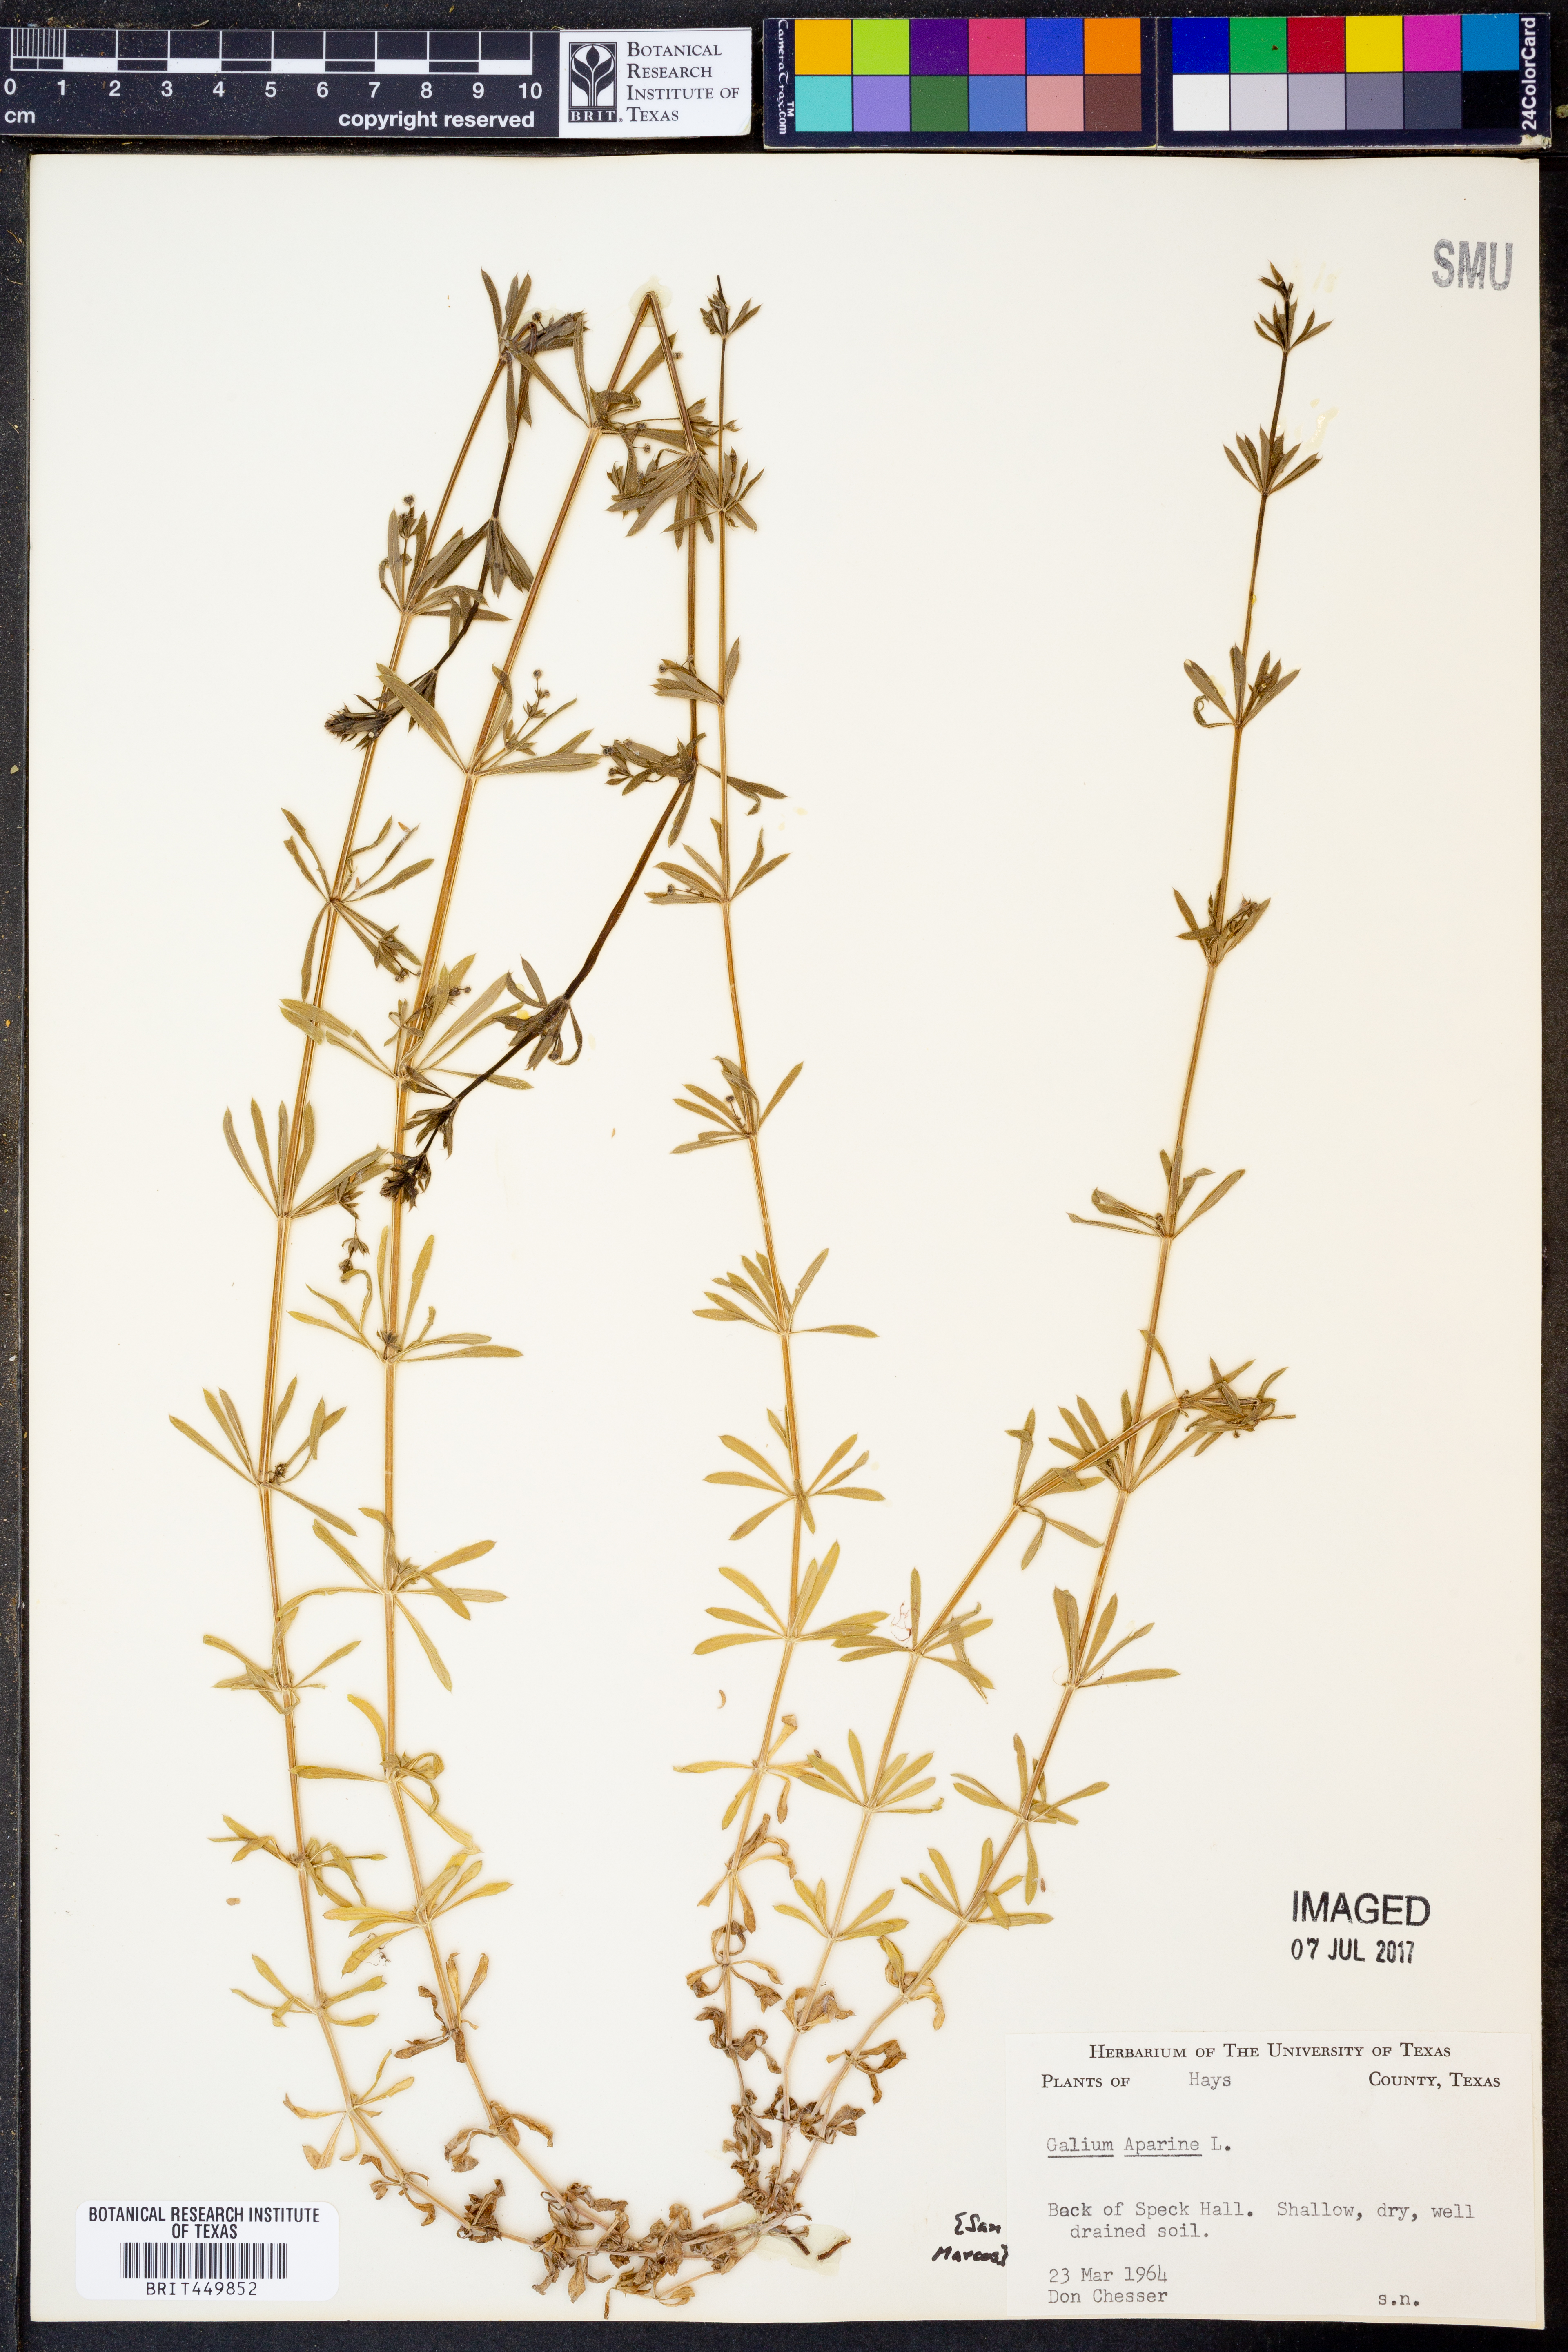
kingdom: Plantae
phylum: Tracheophyta
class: Magnoliopsida
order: Gentianales
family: Rubiaceae
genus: Galium
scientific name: Galium aparine
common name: Cleavers
